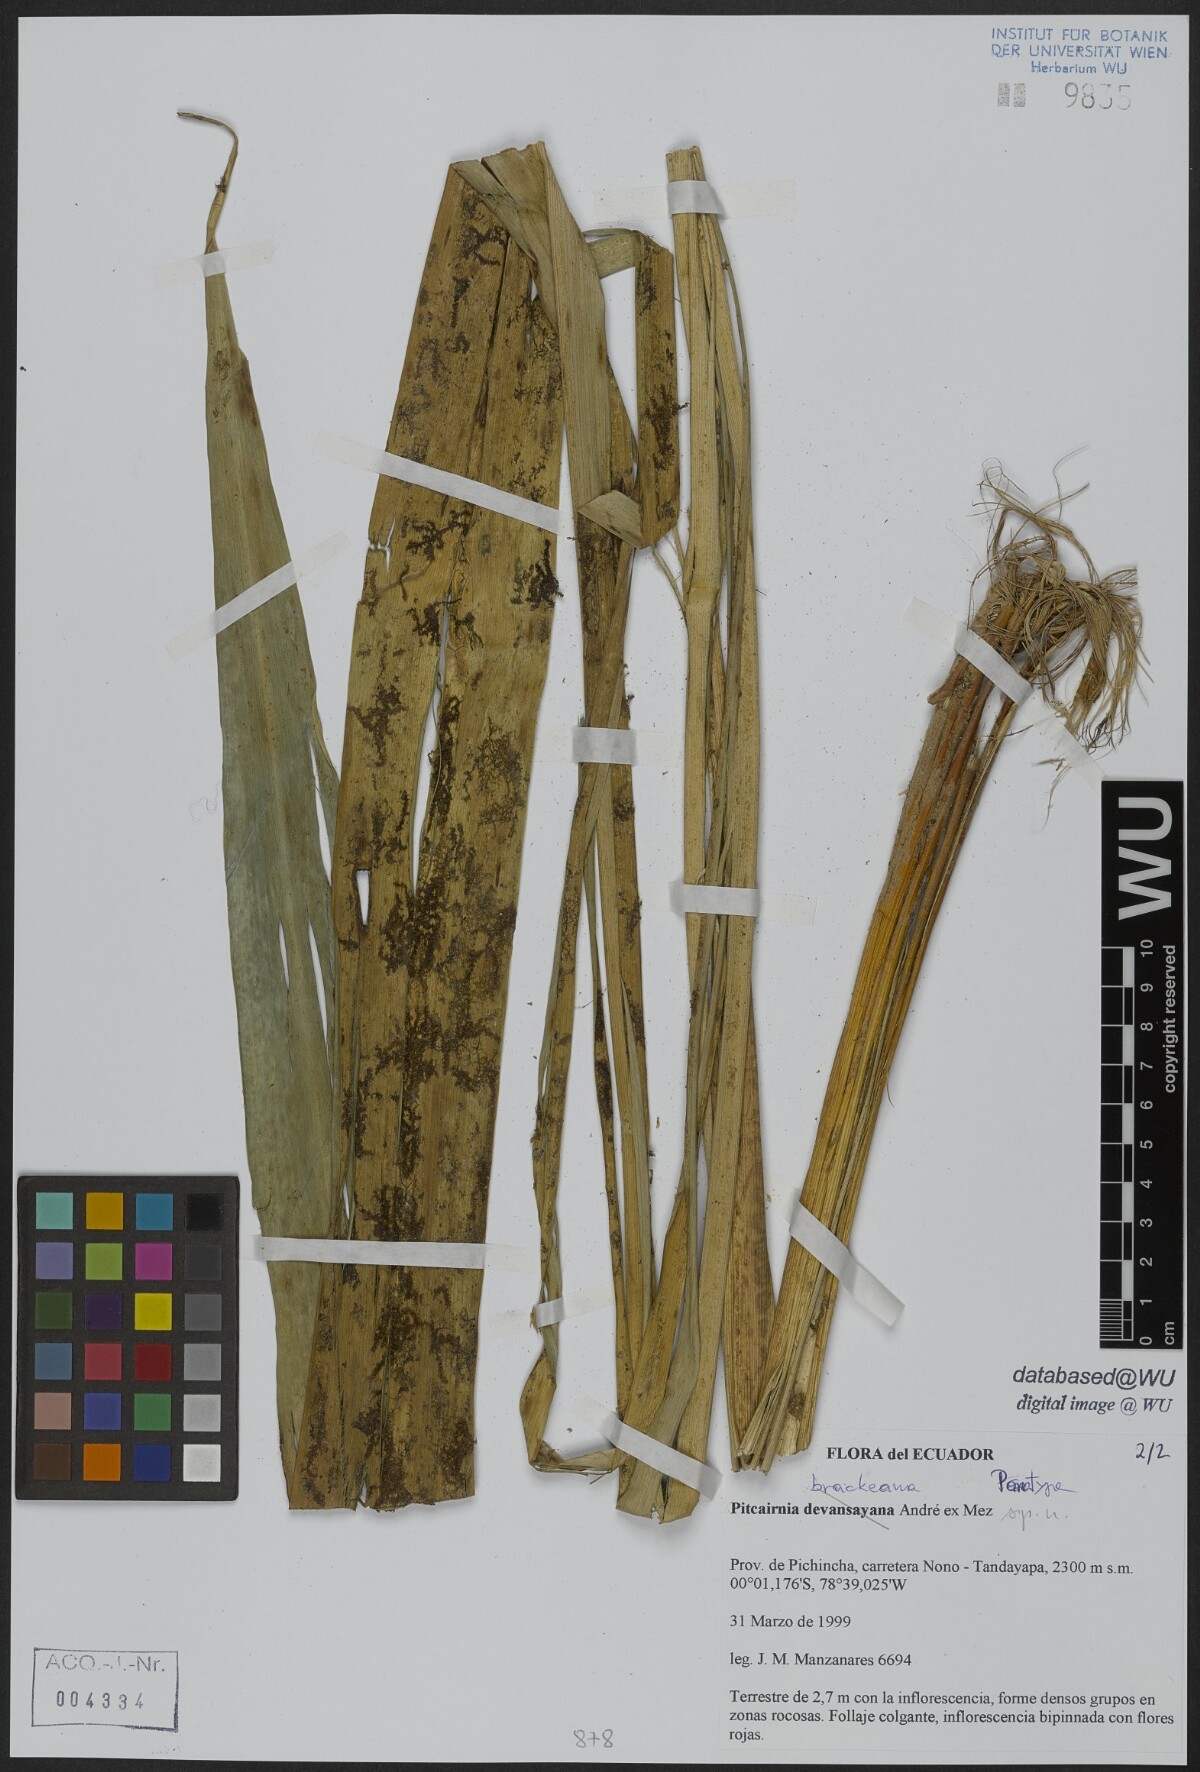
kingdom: Plantae
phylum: Tracheophyta
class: Liliopsida
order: Poales
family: Bromeliaceae
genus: Pitcairnia
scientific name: Pitcairnia brackeana
